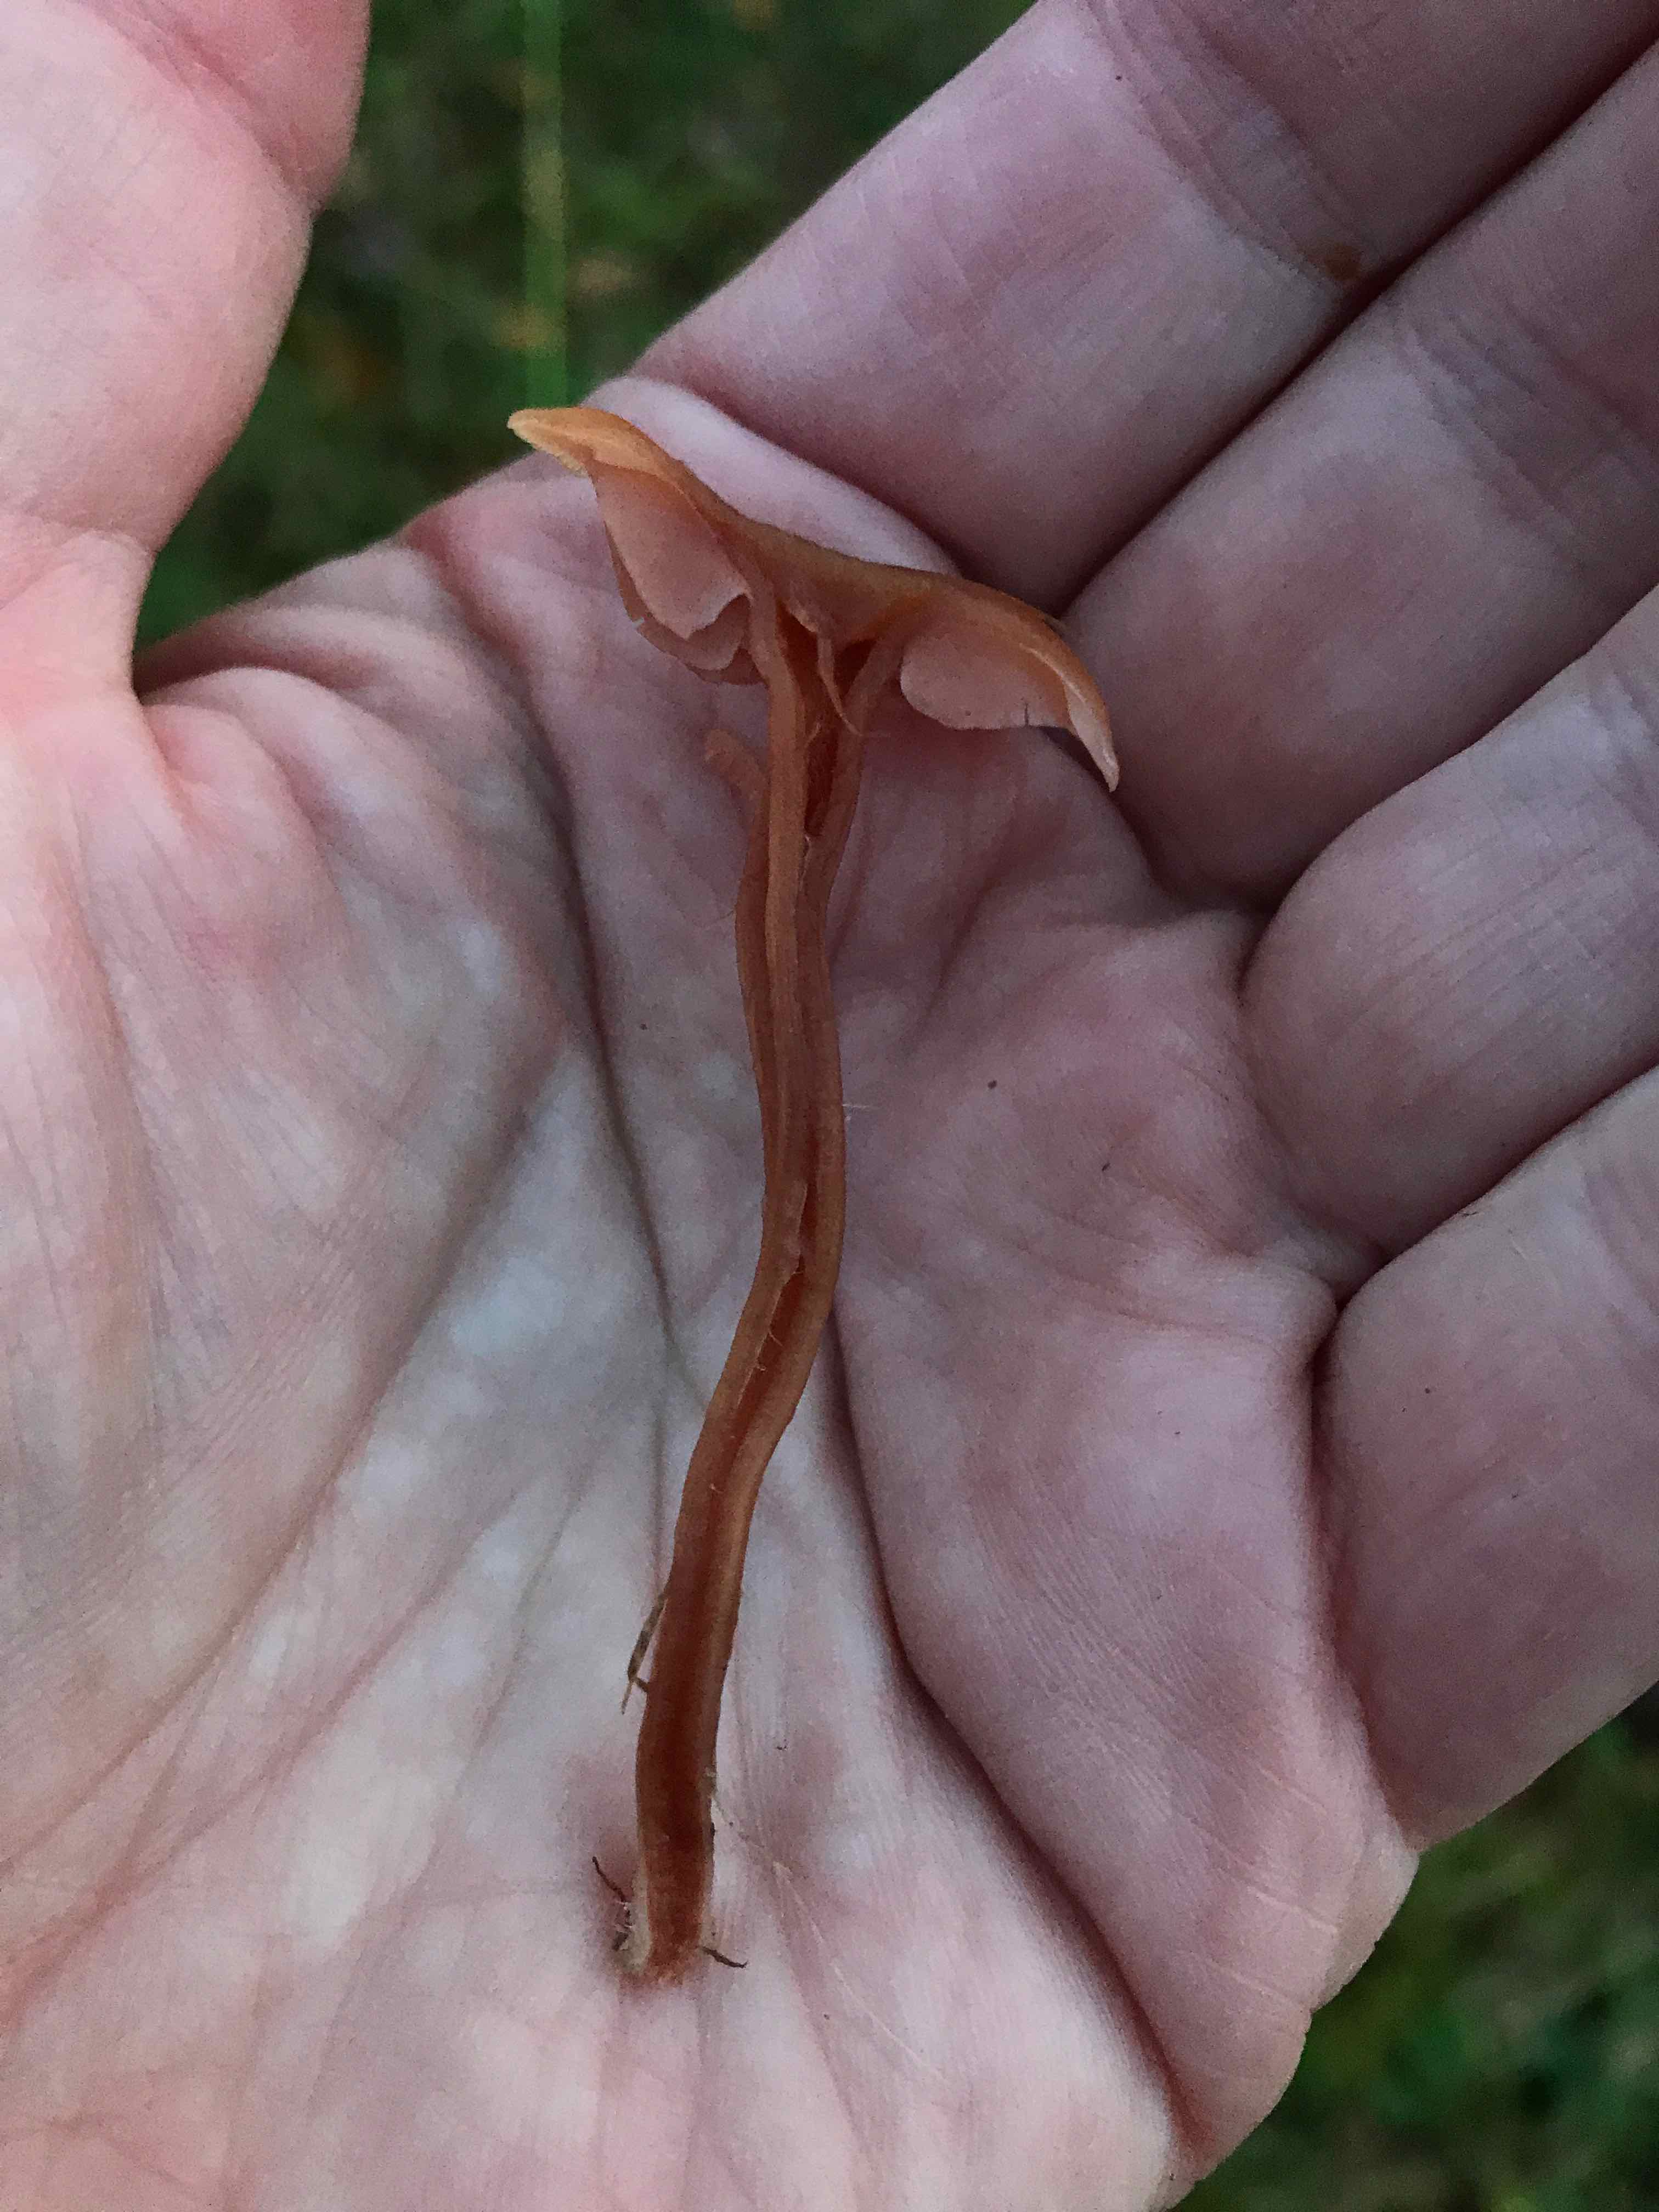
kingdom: Fungi
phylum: Basidiomycota
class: Agaricomycetes
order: Agaricales
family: Hydnangiaceae
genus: Laccaria
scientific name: Laccaria laccata
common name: rød ametysthat
